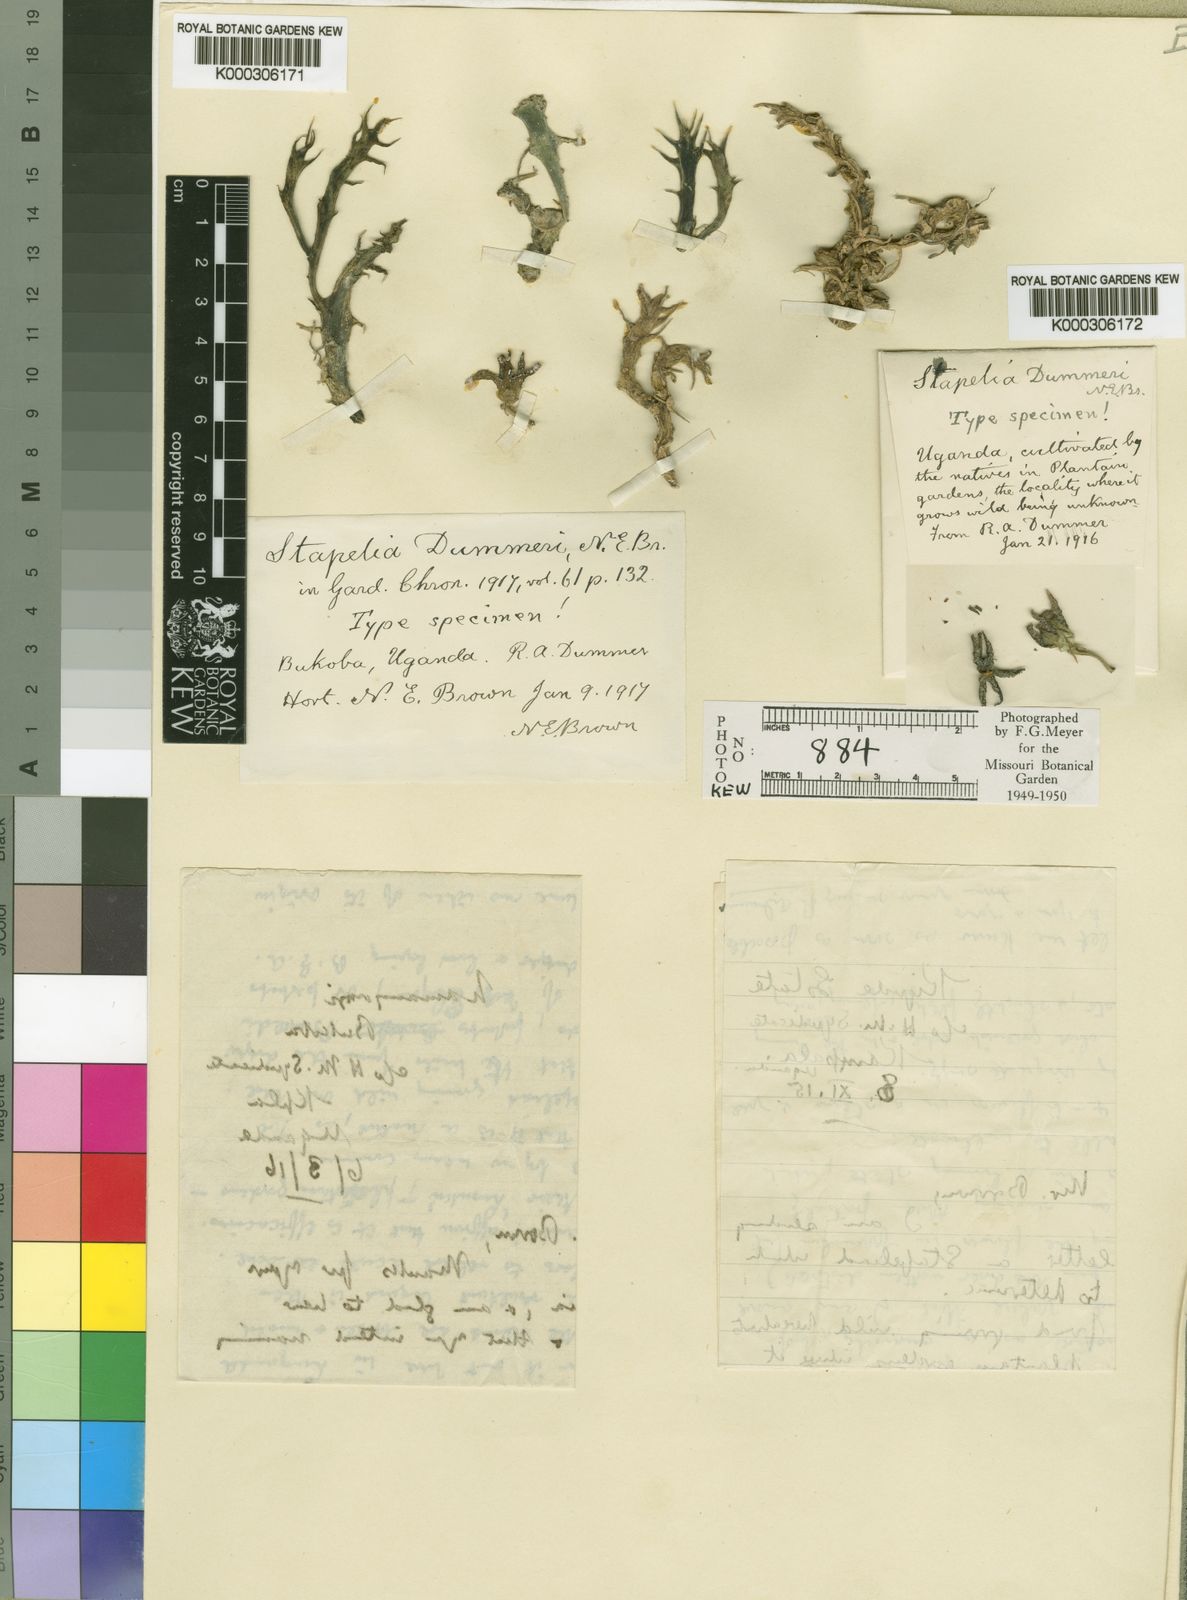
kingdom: Plantae
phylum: Tracheophyta
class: Magnoliopsida
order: Gentianales
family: Apocynaceae
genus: Orbea
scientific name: Orbea dummeri
